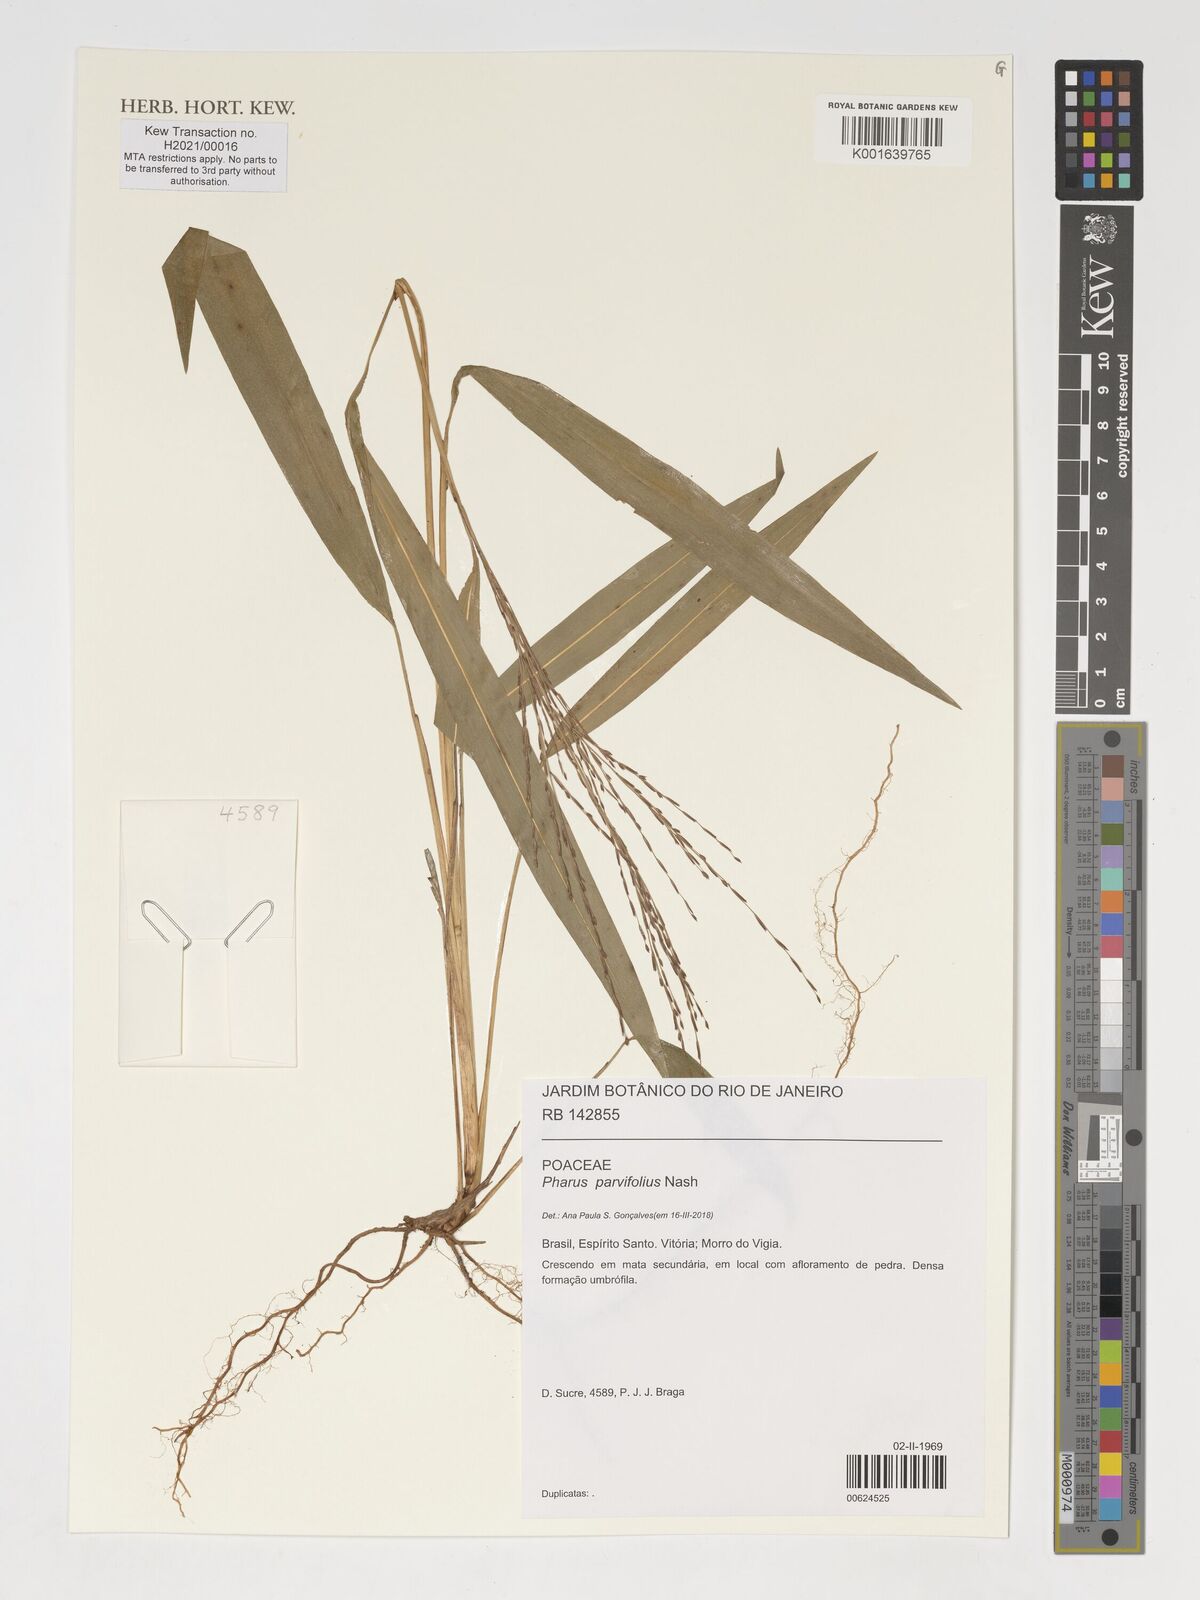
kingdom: Plantae
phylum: Tracheophyta
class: Liliopsida
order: Poales
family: Poaceae
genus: Pharus
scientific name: Pharus parvifolius
